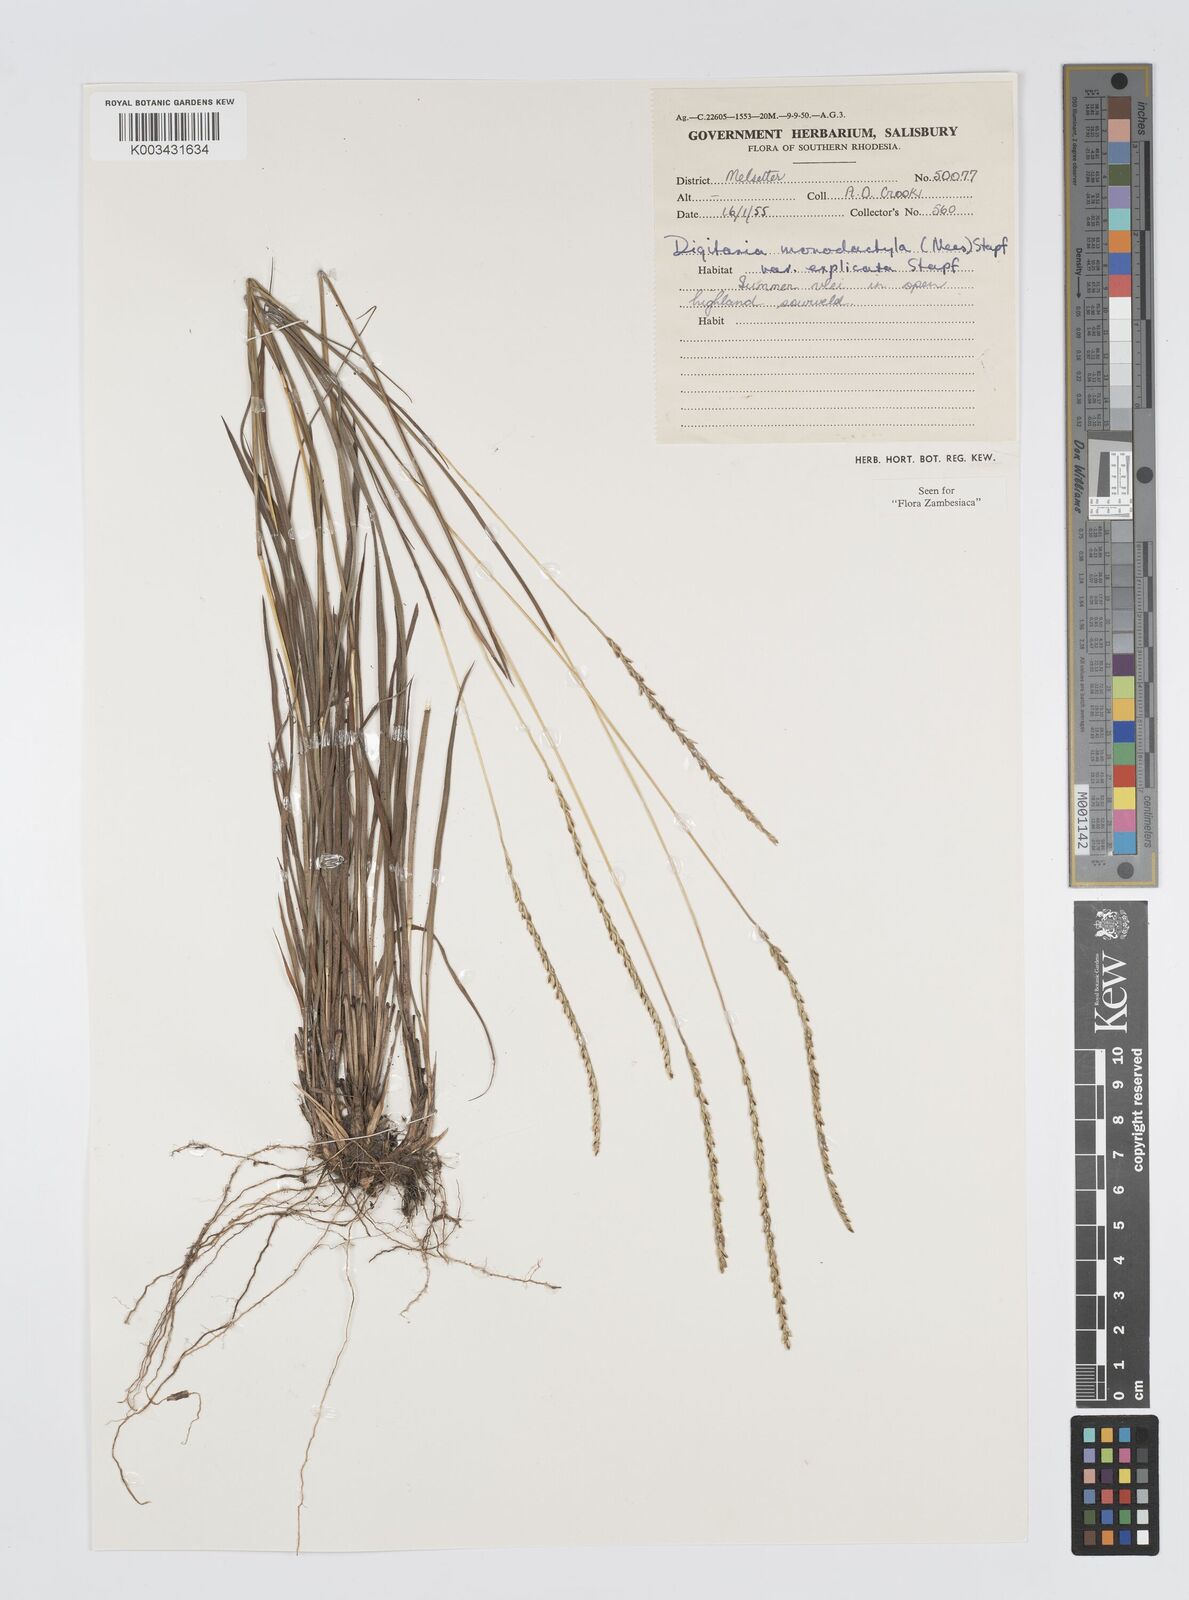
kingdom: Plantae
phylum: Tracheophyta
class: Liliopsida
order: Poales
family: Poaceae
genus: Digitaria
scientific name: Digitaria monodactyla
